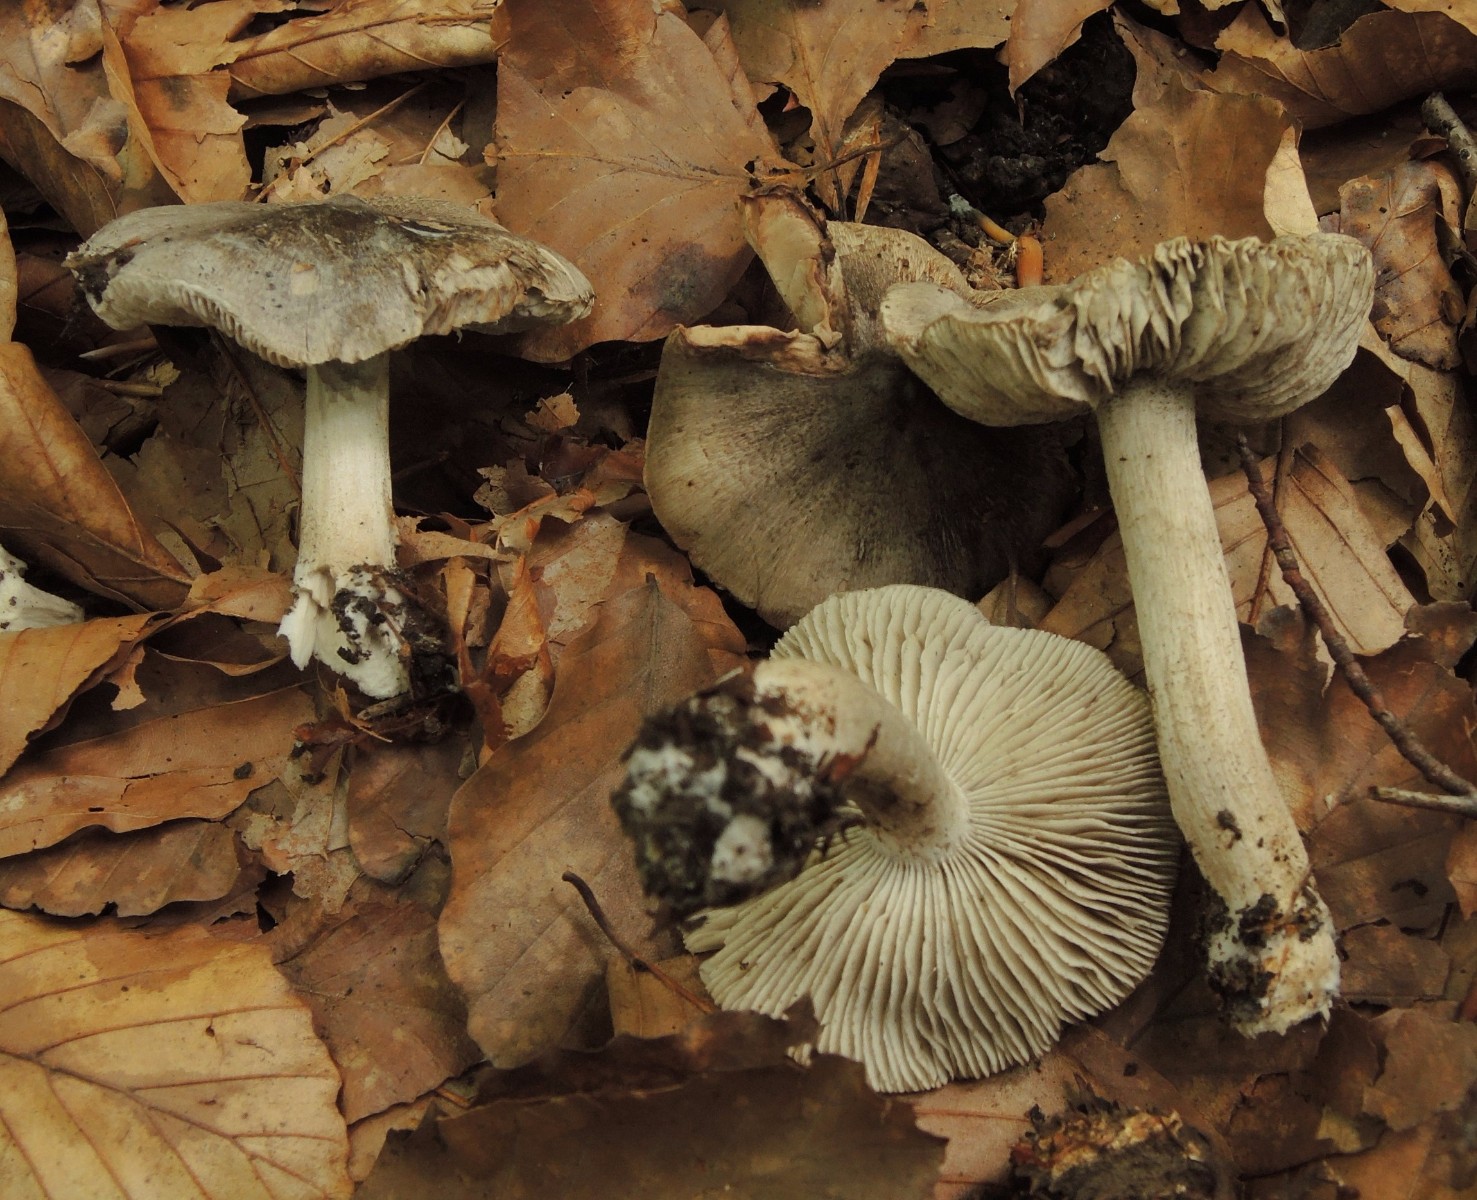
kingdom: Fungi
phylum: Basidiomycota
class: Agaricomycetes
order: Agaricales
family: Tricholomataceae
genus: Tricholoma
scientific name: Tricholoma sciodes
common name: stribet ridderhat
